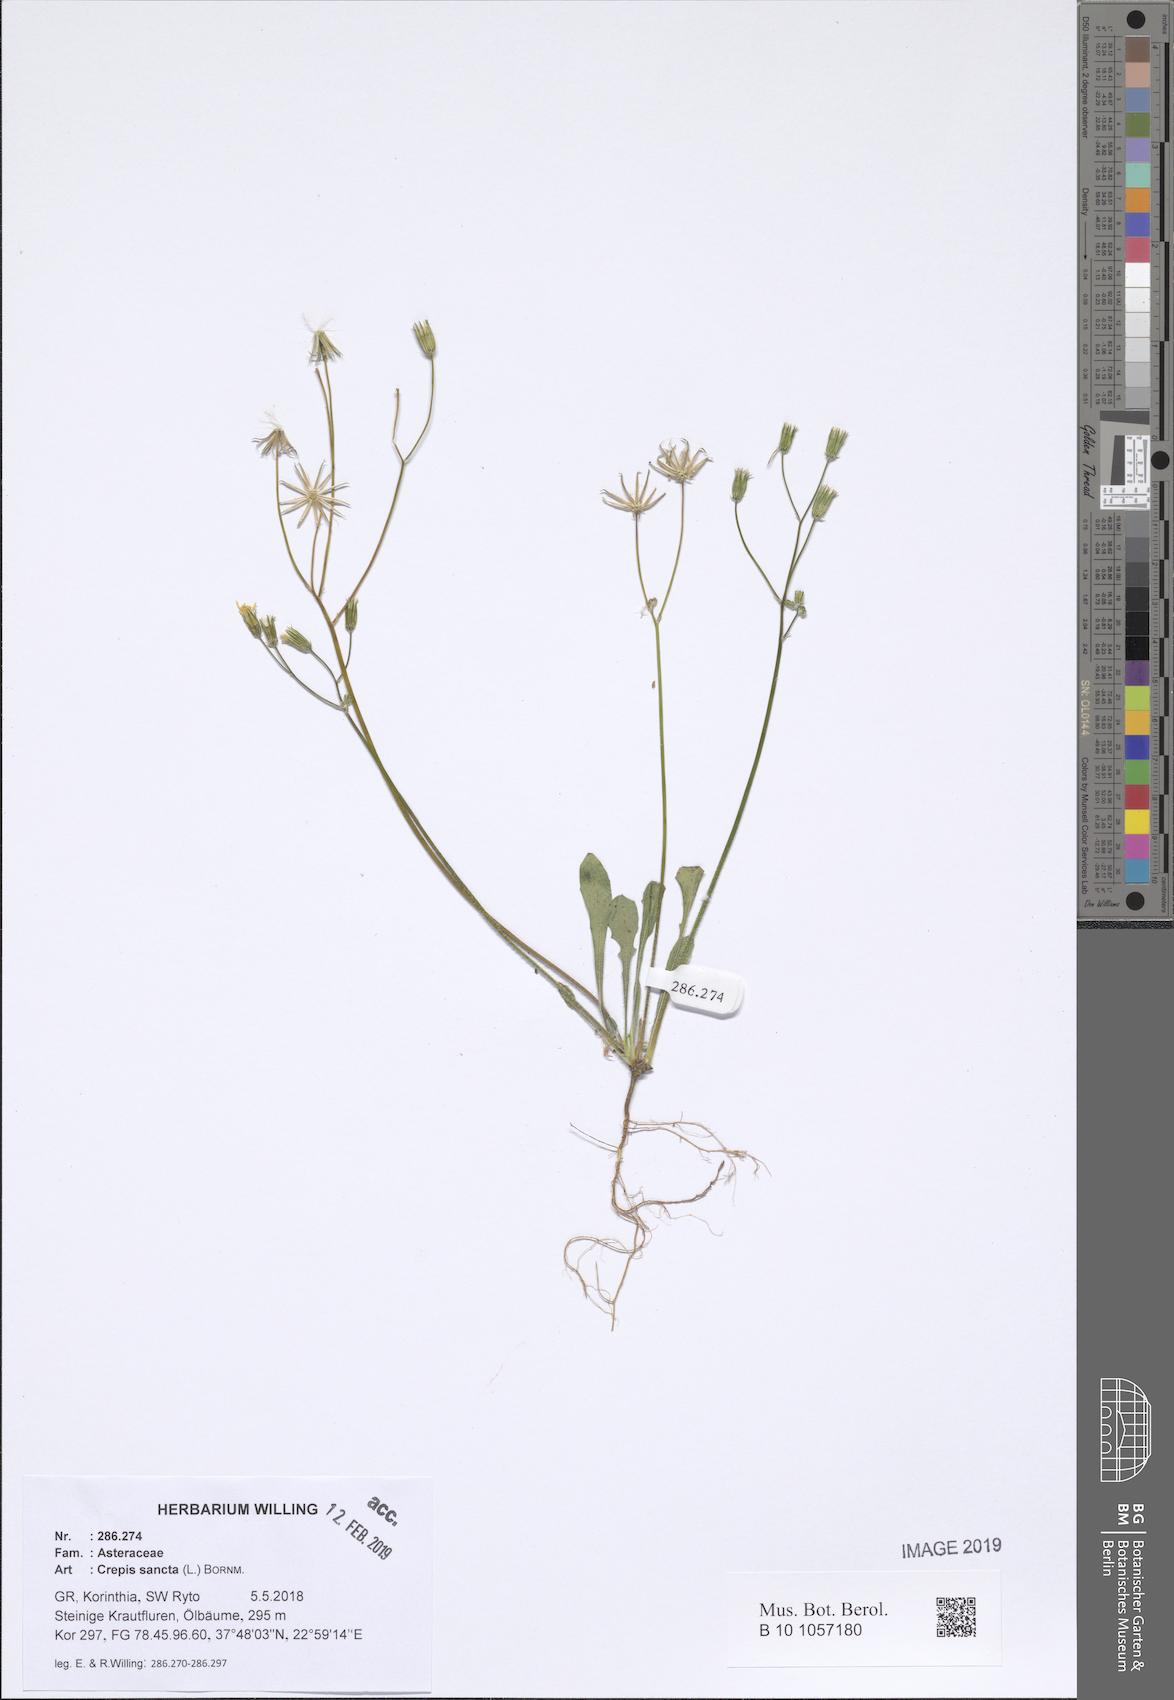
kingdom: Plantae
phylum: Tracheophyta
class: Liliopsida
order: Asparagales
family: Asphodelaceae
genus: Asphodelus
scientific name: Asphodelus fistulosus
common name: Onionweed
